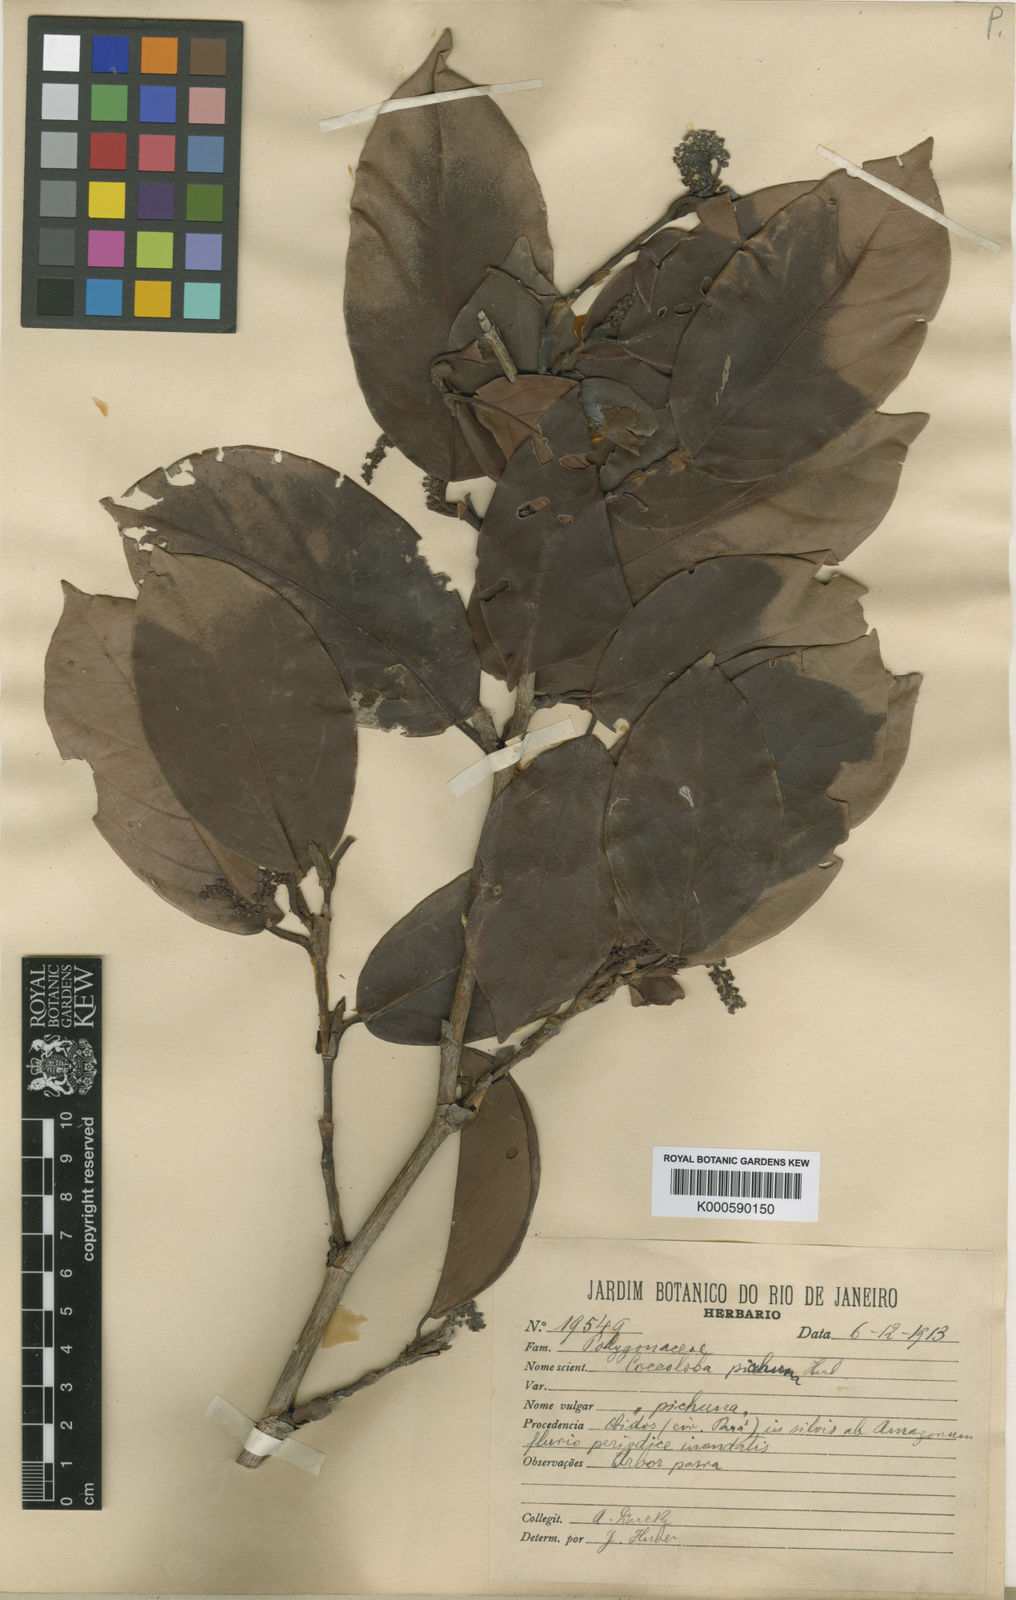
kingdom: Plantae
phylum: Tracheophyta
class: Magnoliopsida
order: Caryophyllales
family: Polygonaceae
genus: Coccoloba
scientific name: Coccoloba densifrons
